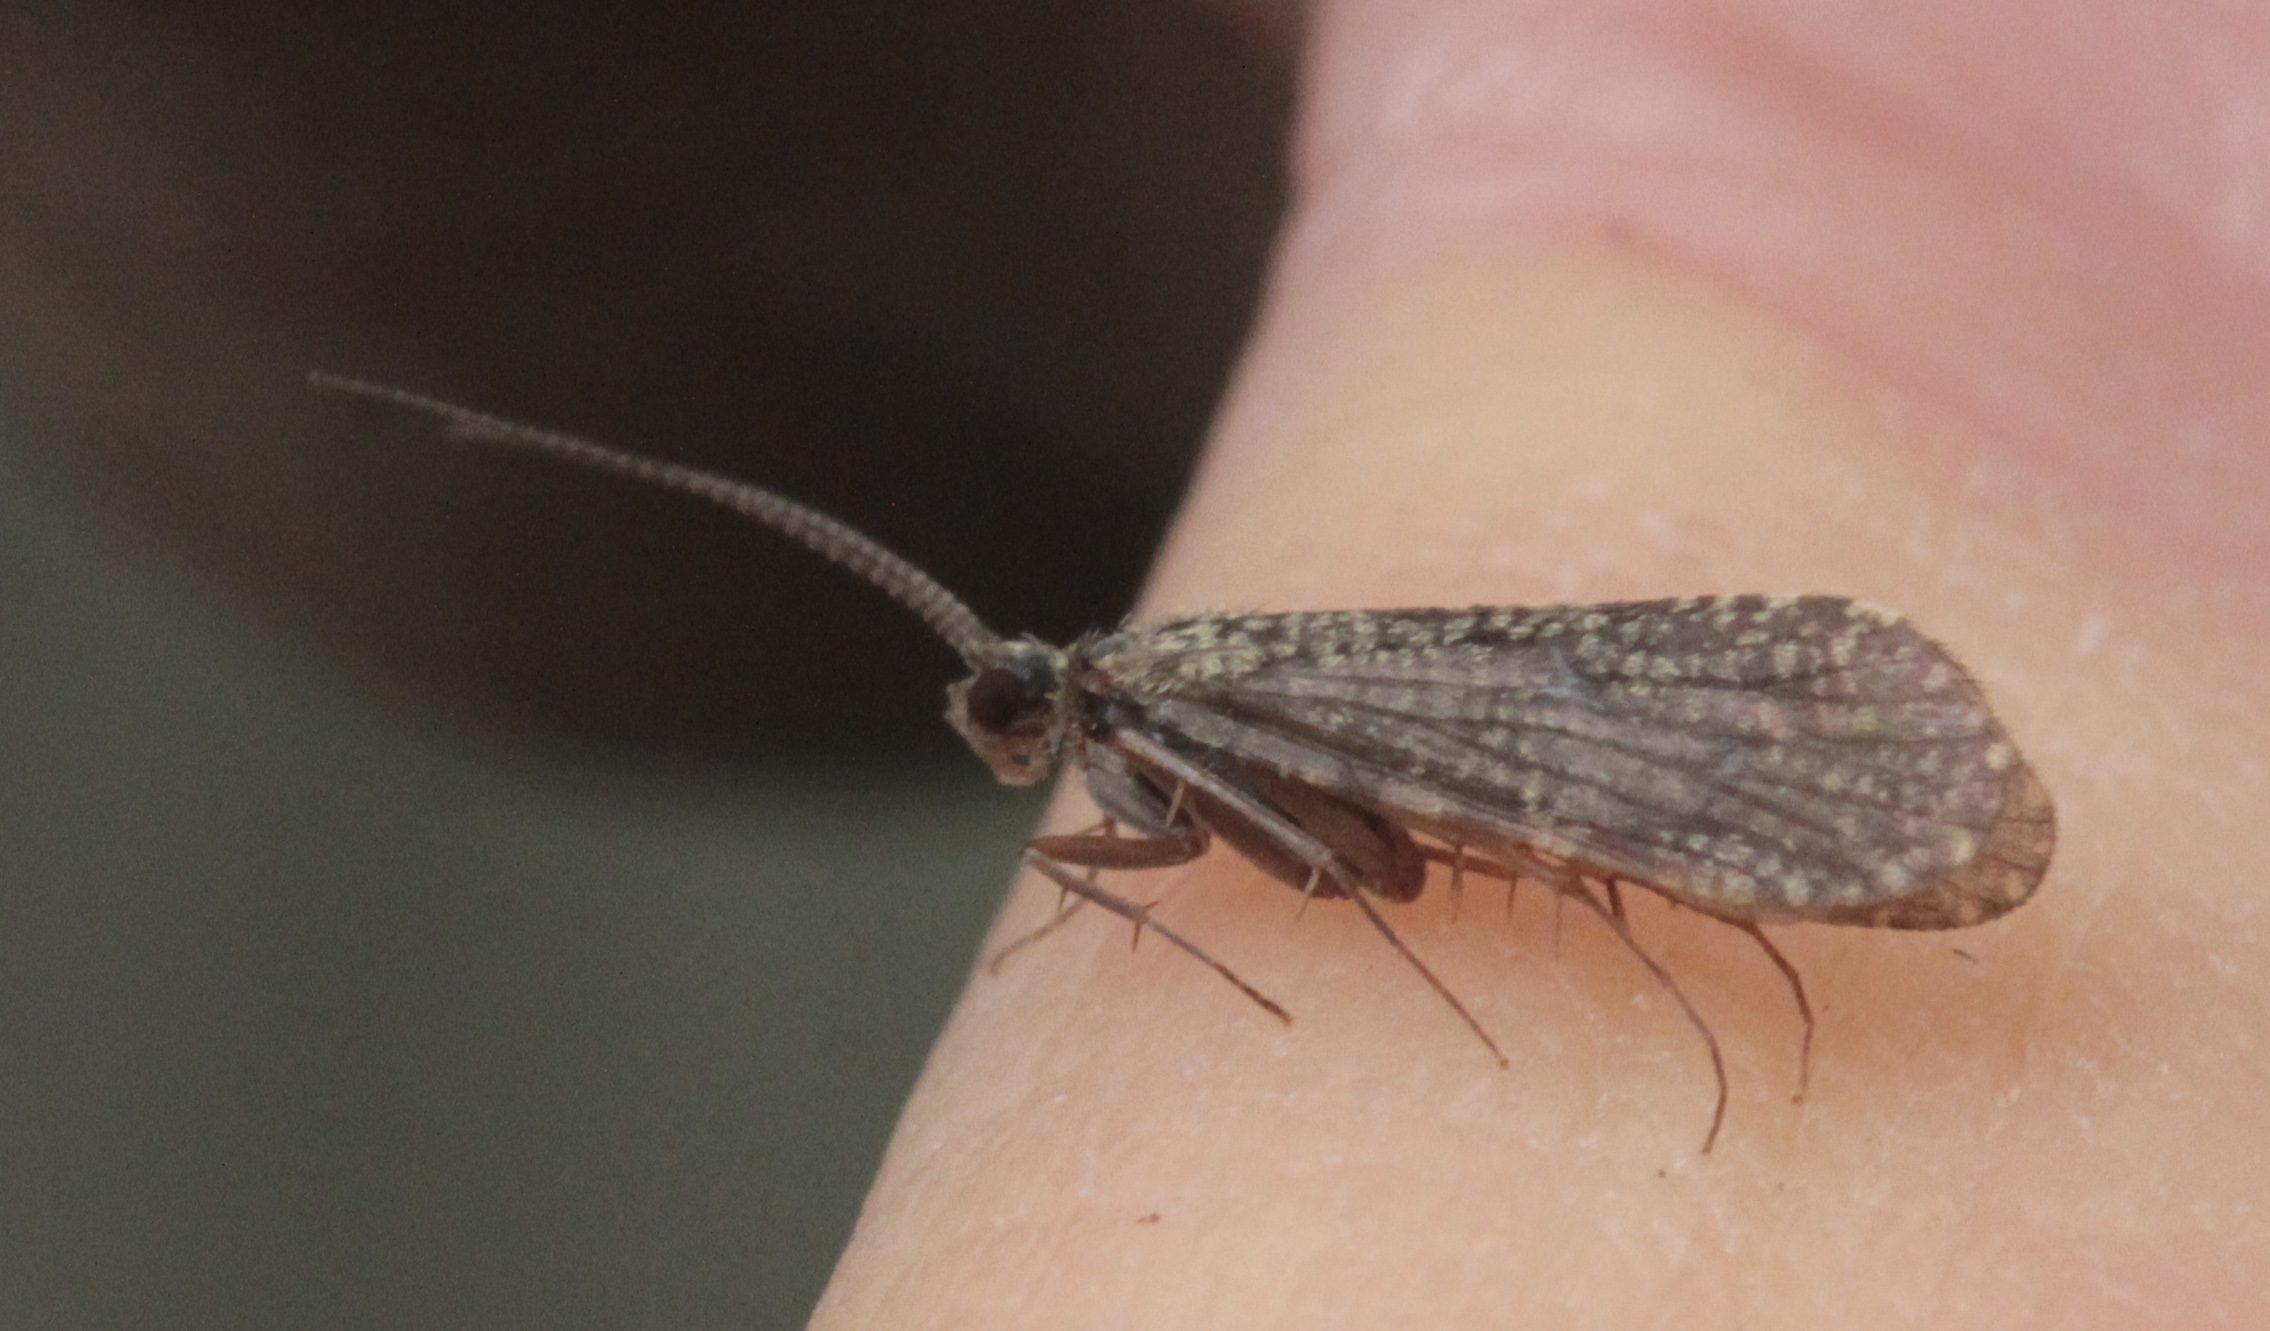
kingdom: Animalia
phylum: Arthropoda
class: Insecta
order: Trichoptera
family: Polycentropodidae
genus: Polycentropus
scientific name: Polycentropus flavomaculatus
